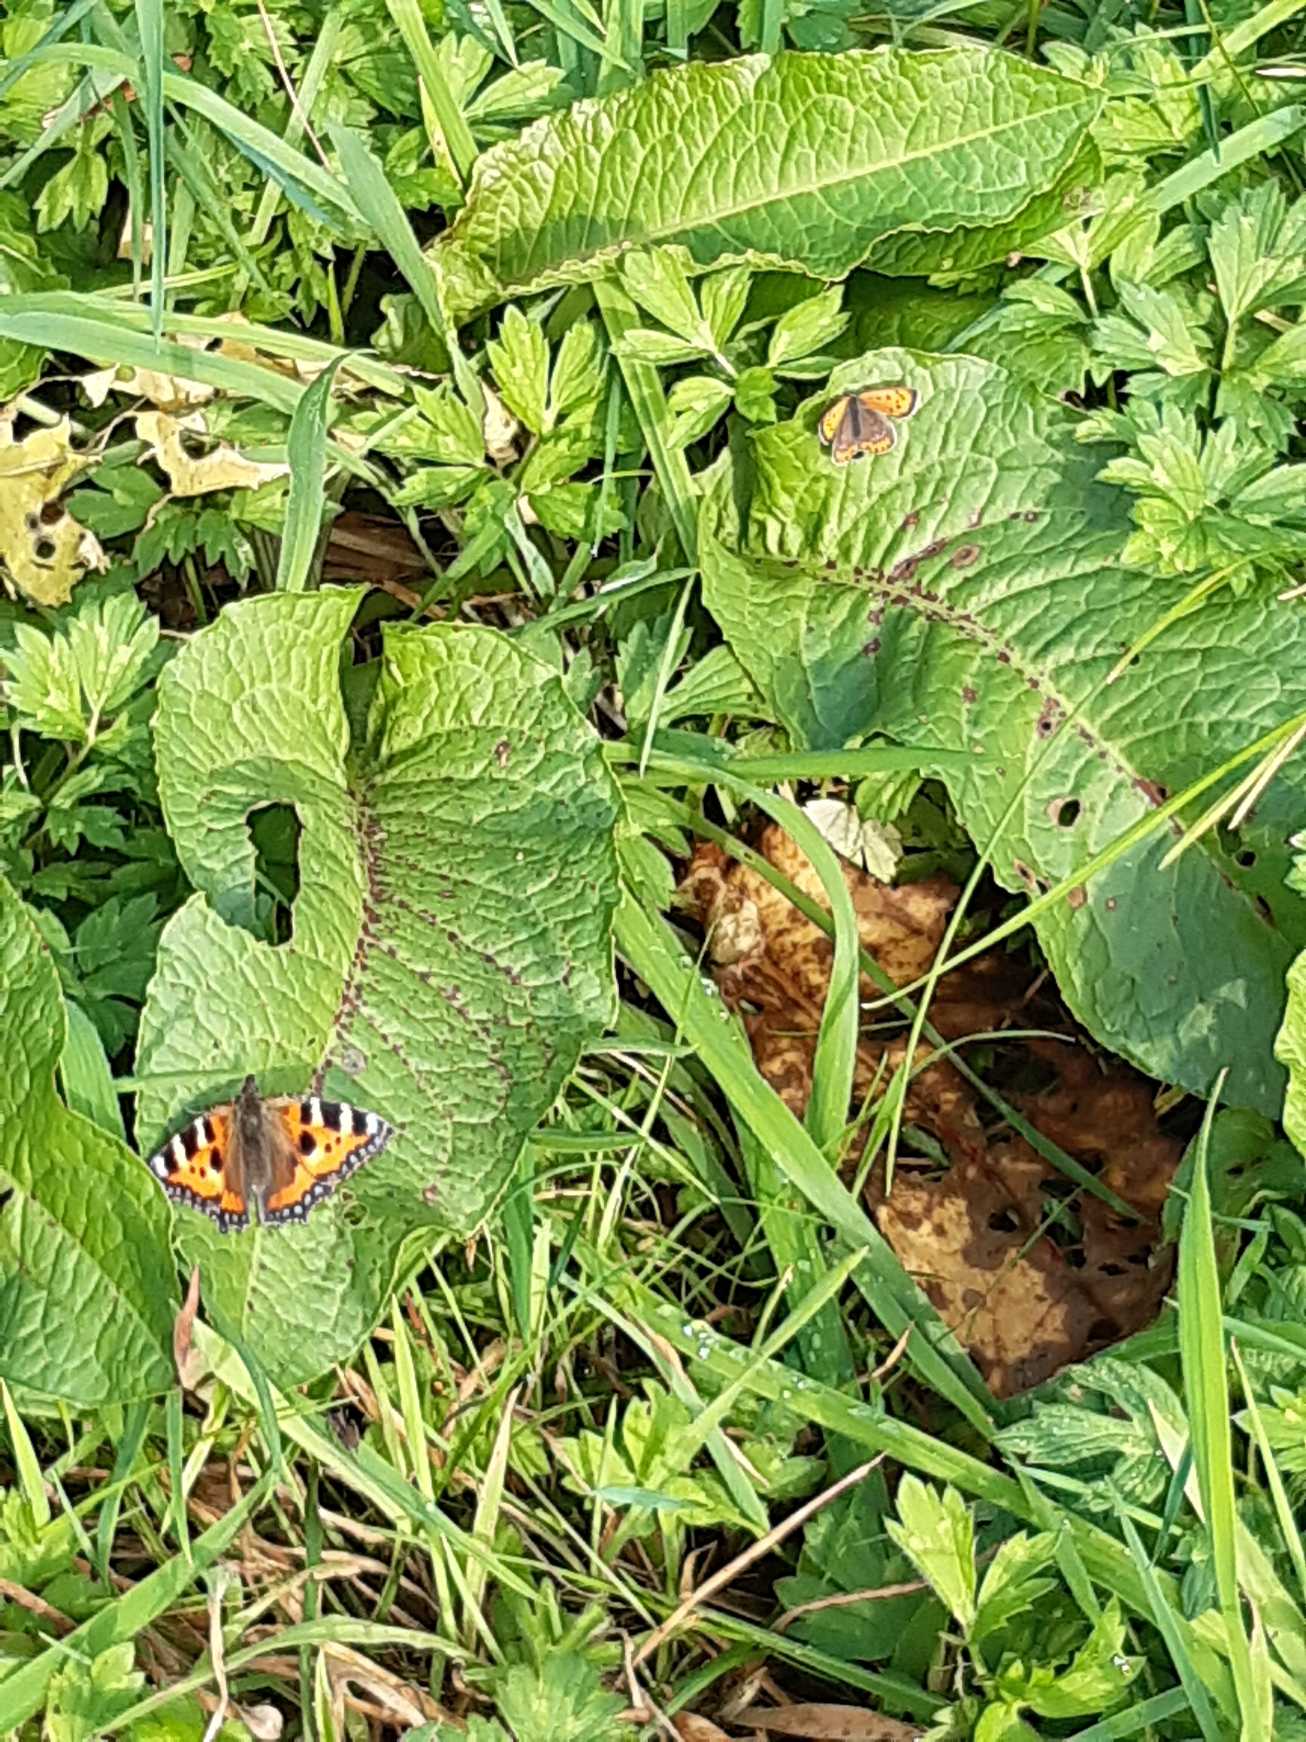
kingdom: Animalia
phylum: Arthropoda
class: Insecta
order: Lepidoptera
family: Nymphalidae
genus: Aglais
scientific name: Aglais urticae
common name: Nældens takvinge
